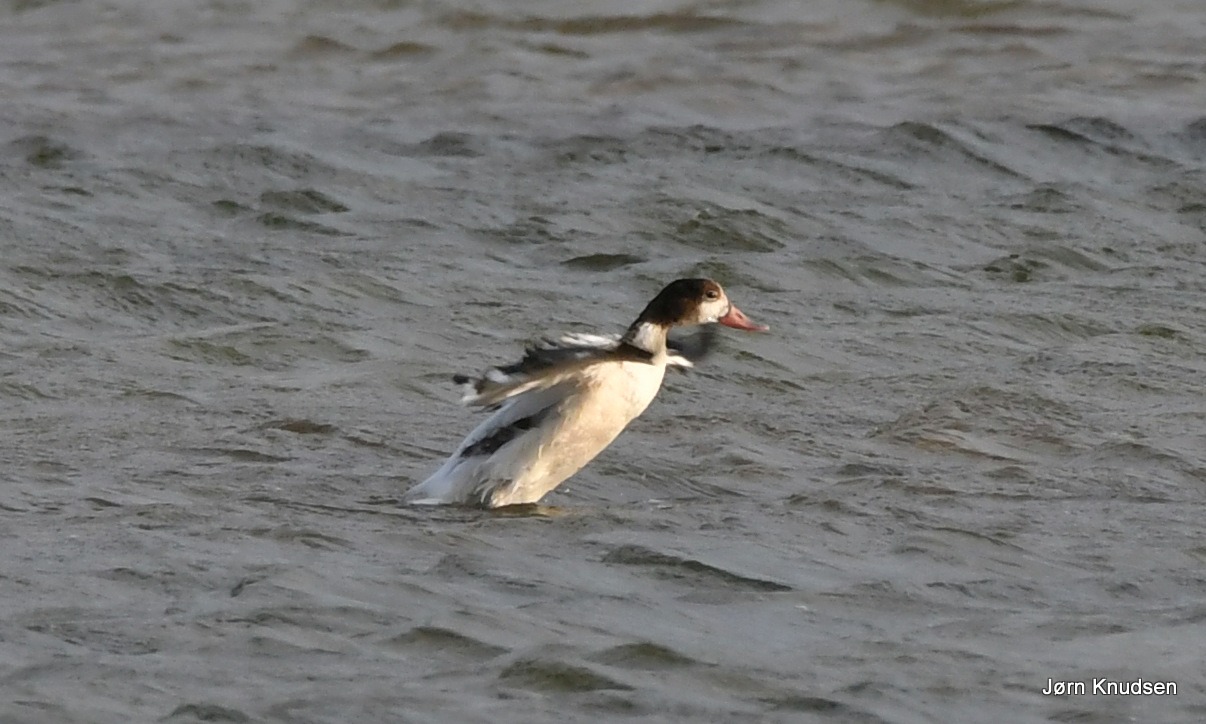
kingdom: Animalia
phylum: Chordata
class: Aves
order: Anseriformes
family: Anatidae
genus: Tadorna
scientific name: Tadorna tadorna
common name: Gravand
